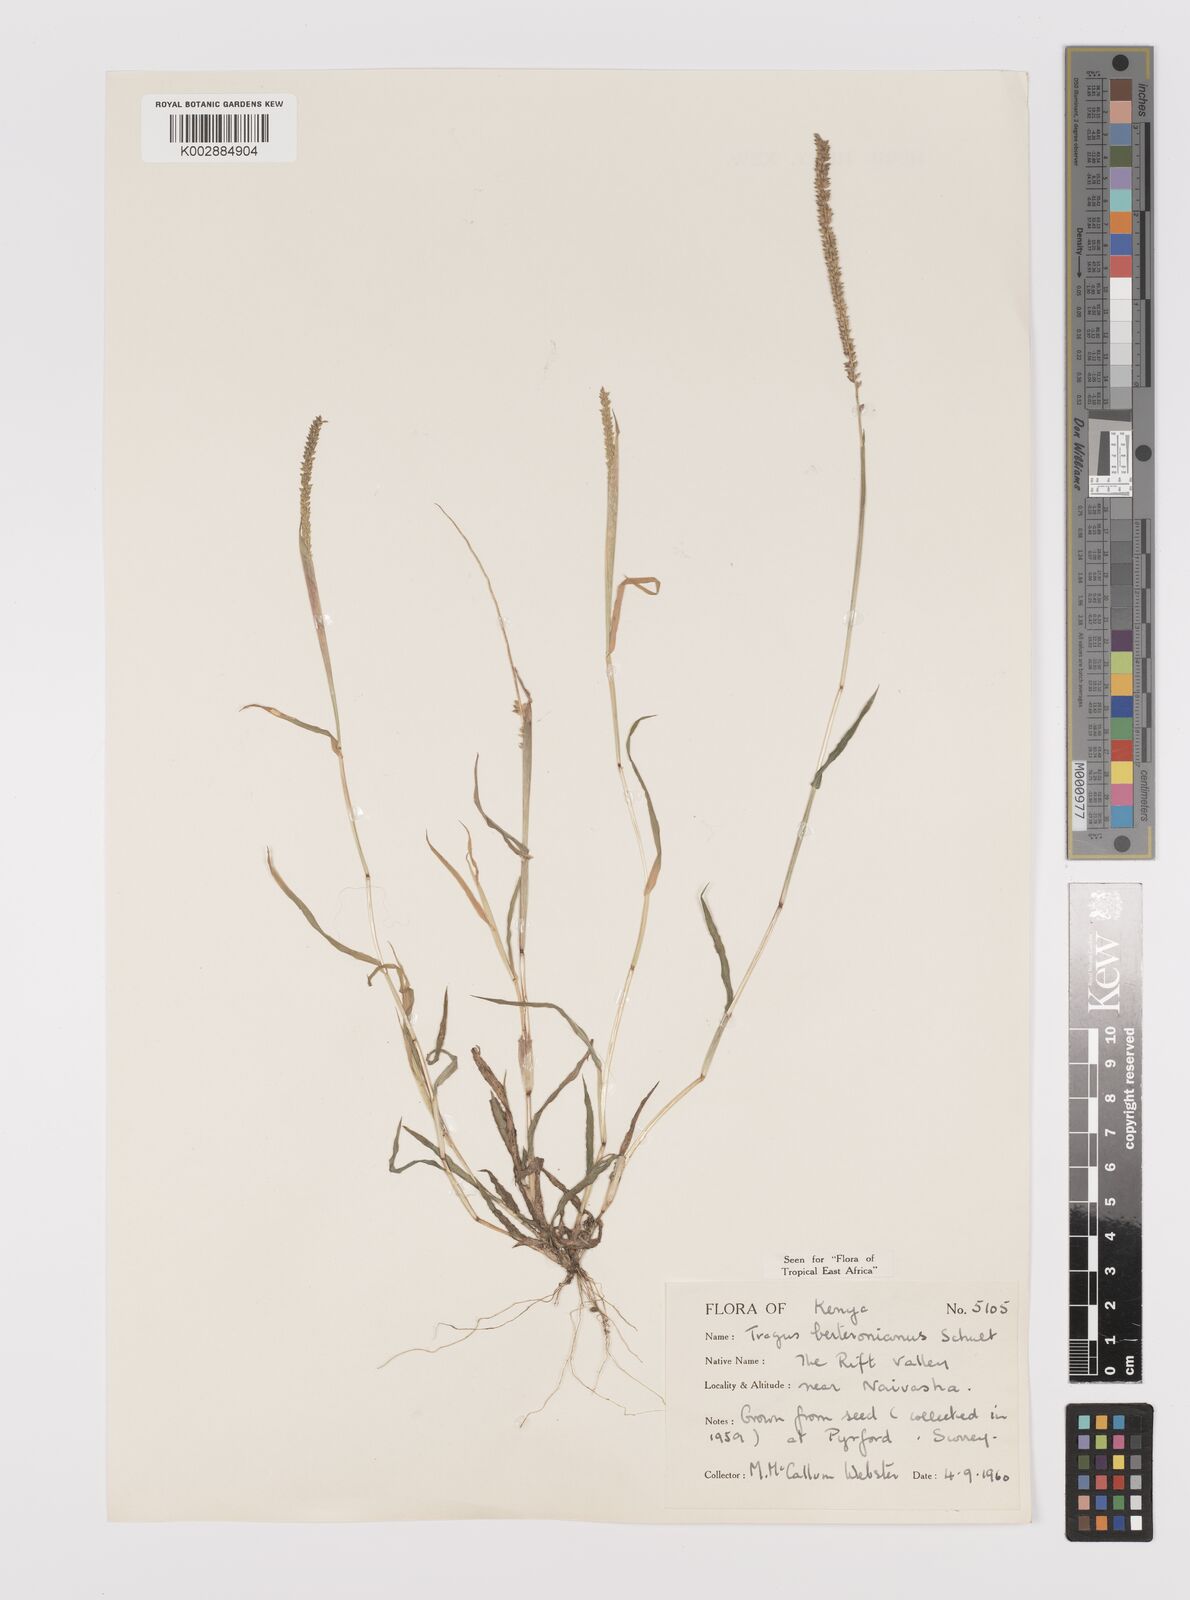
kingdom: Plantae
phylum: Tracheophyta
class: Liliopsida
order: Poales
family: Poaceae
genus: Tragus
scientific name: Tragus berteronianus
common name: African bur-grass
